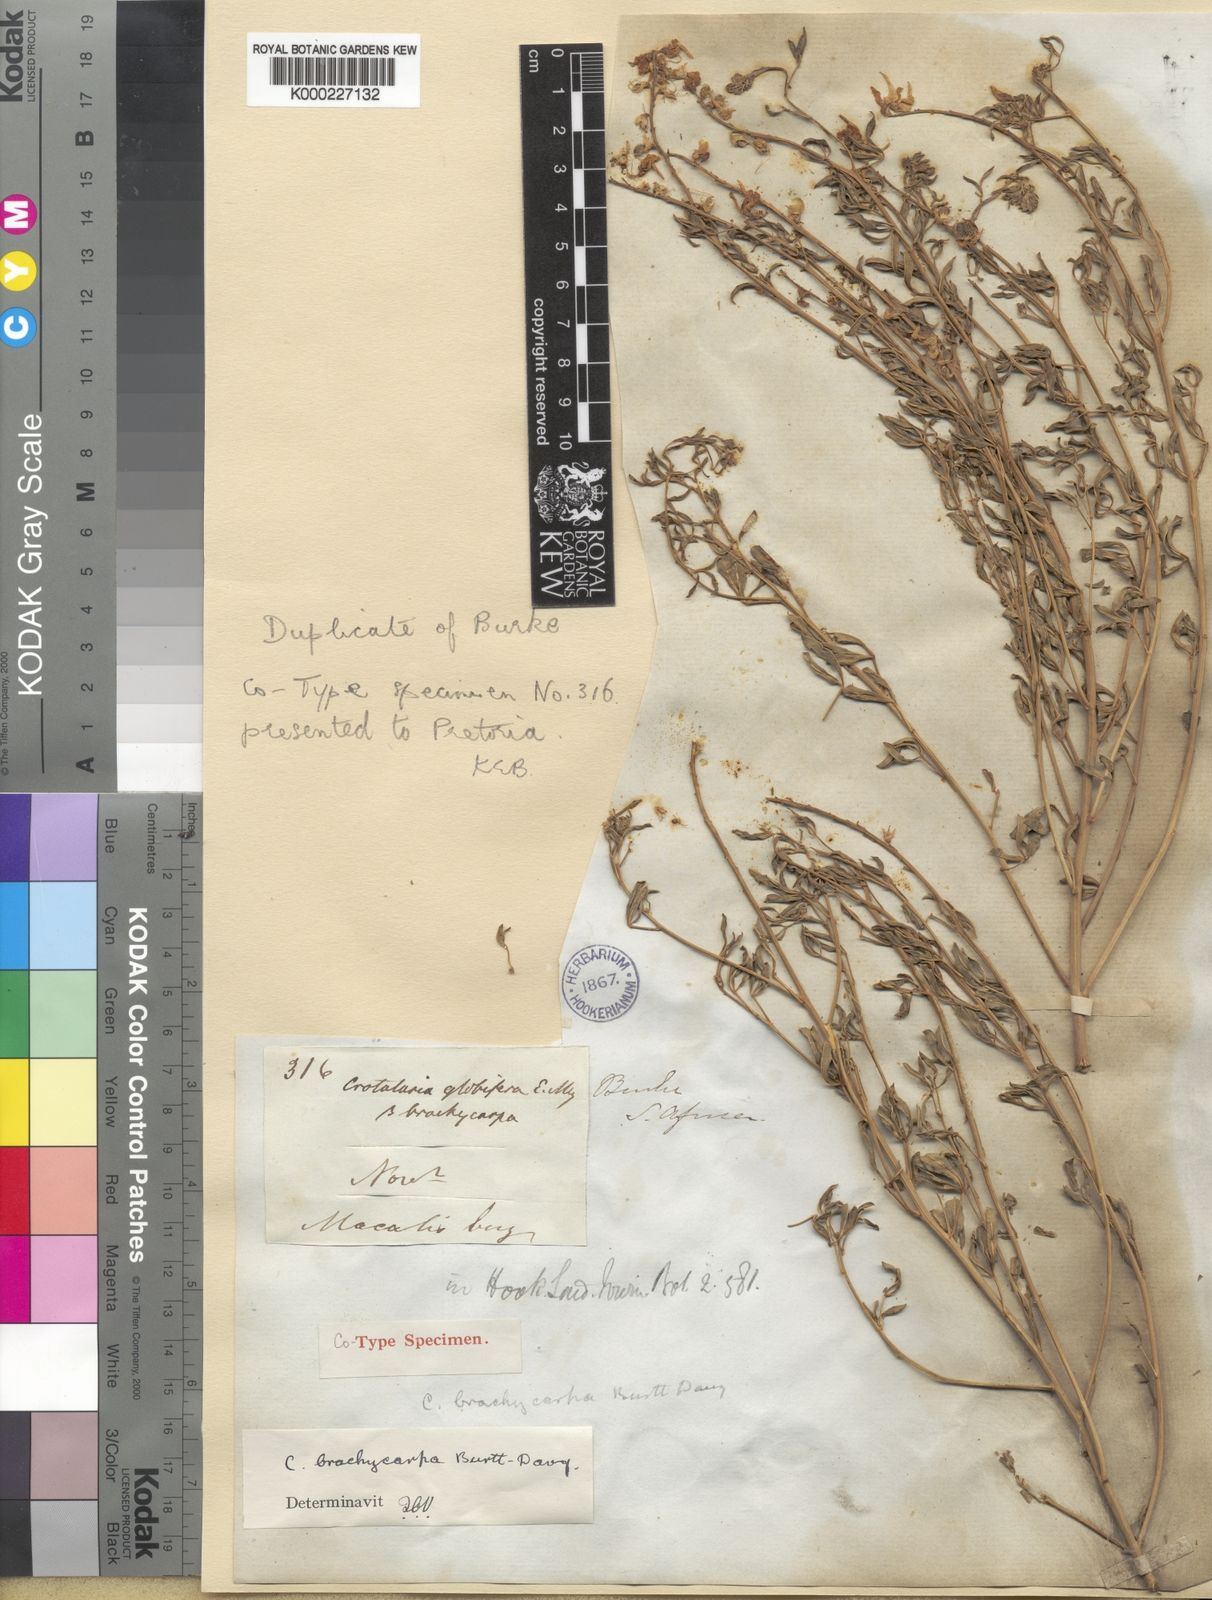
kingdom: Plantae
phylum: Tracheophyta
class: Magnoliopsida
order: Fabales
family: Fabaceae
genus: Crotalaria
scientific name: Crotalaria magaliesbergensis
